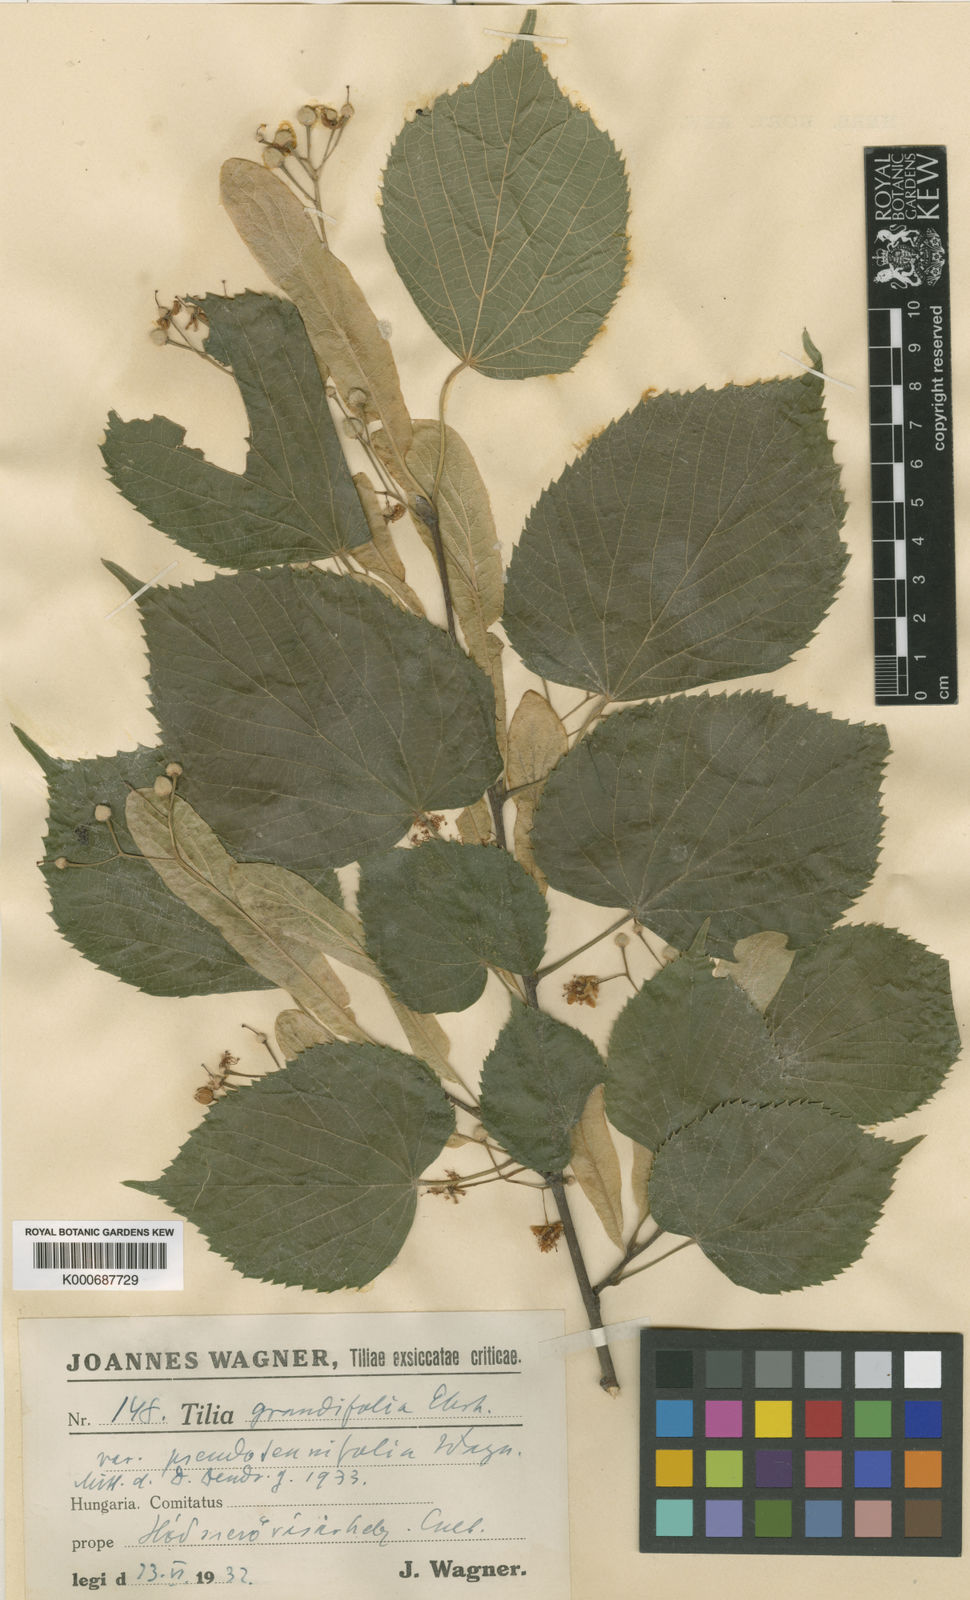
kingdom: Plantae
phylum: Tracheophyta
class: Magnoliopsida
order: Malvales
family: Malvaceae
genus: Tilia
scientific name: Tilia platyphyllos
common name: Large-leaved lime
